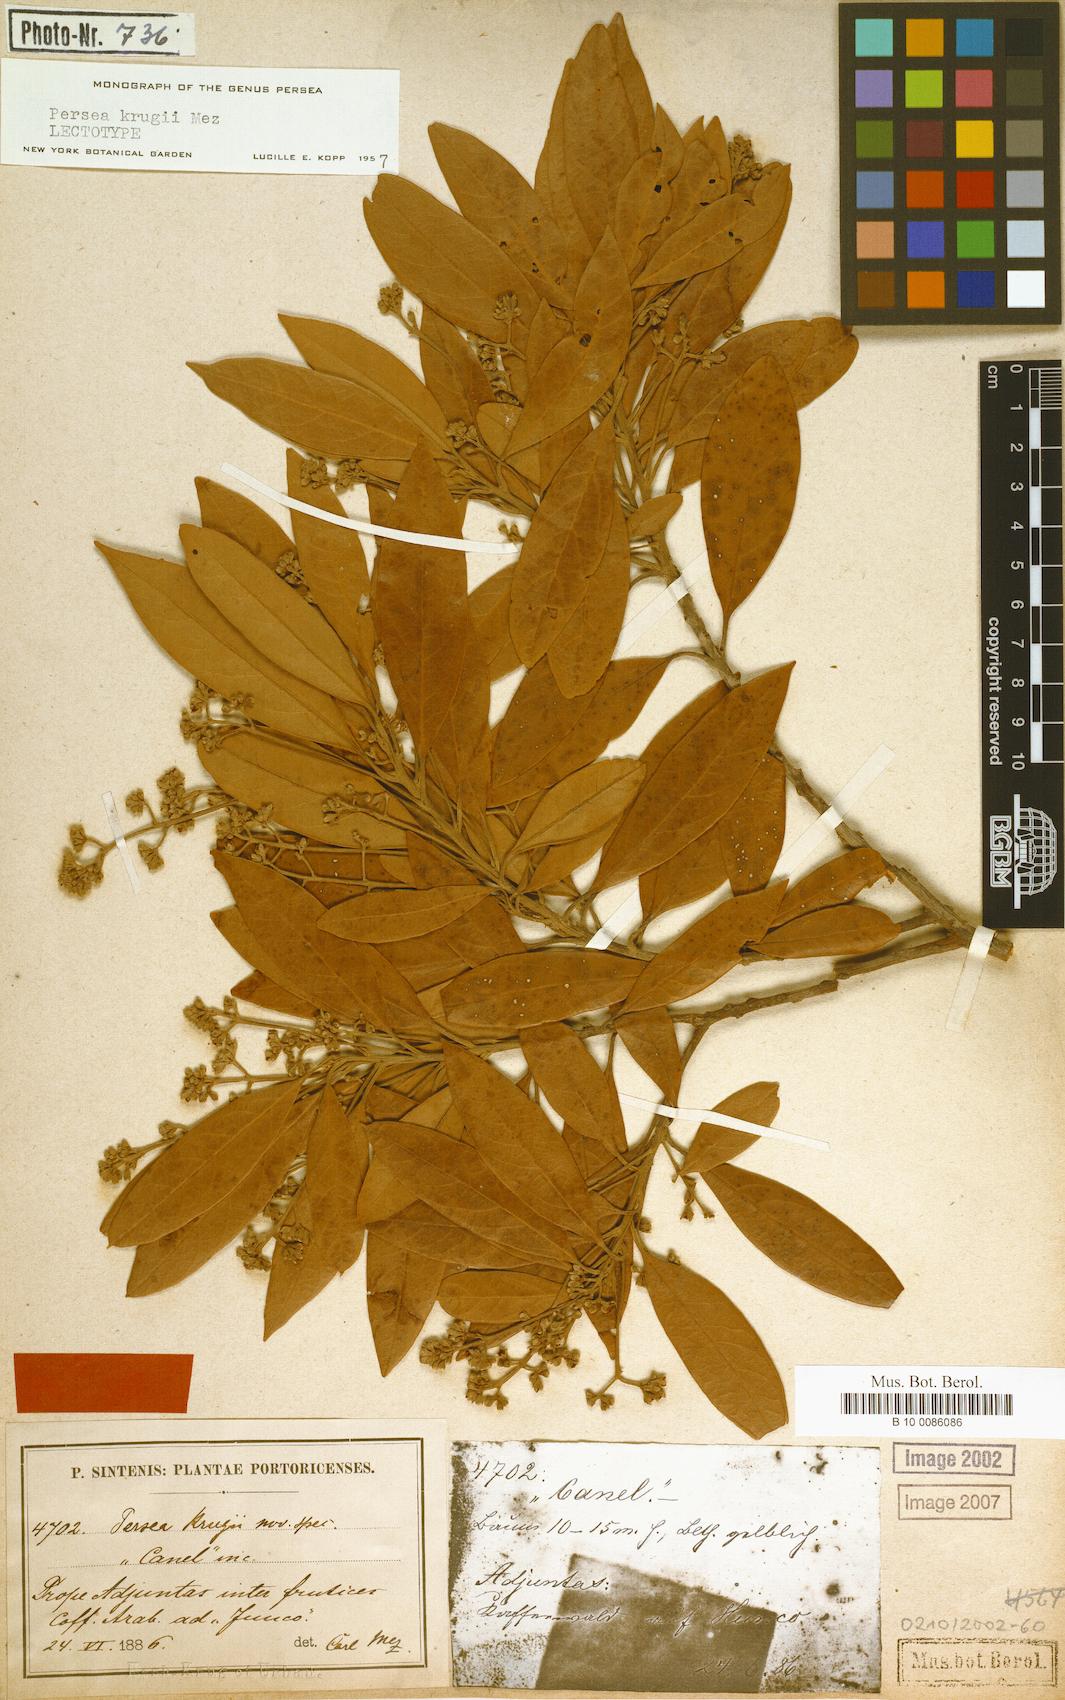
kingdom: Plantae
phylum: Tracheophyta
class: Magnoliopsida
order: Laurales
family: Lauraceae
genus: Persea
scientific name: Persea krugii
